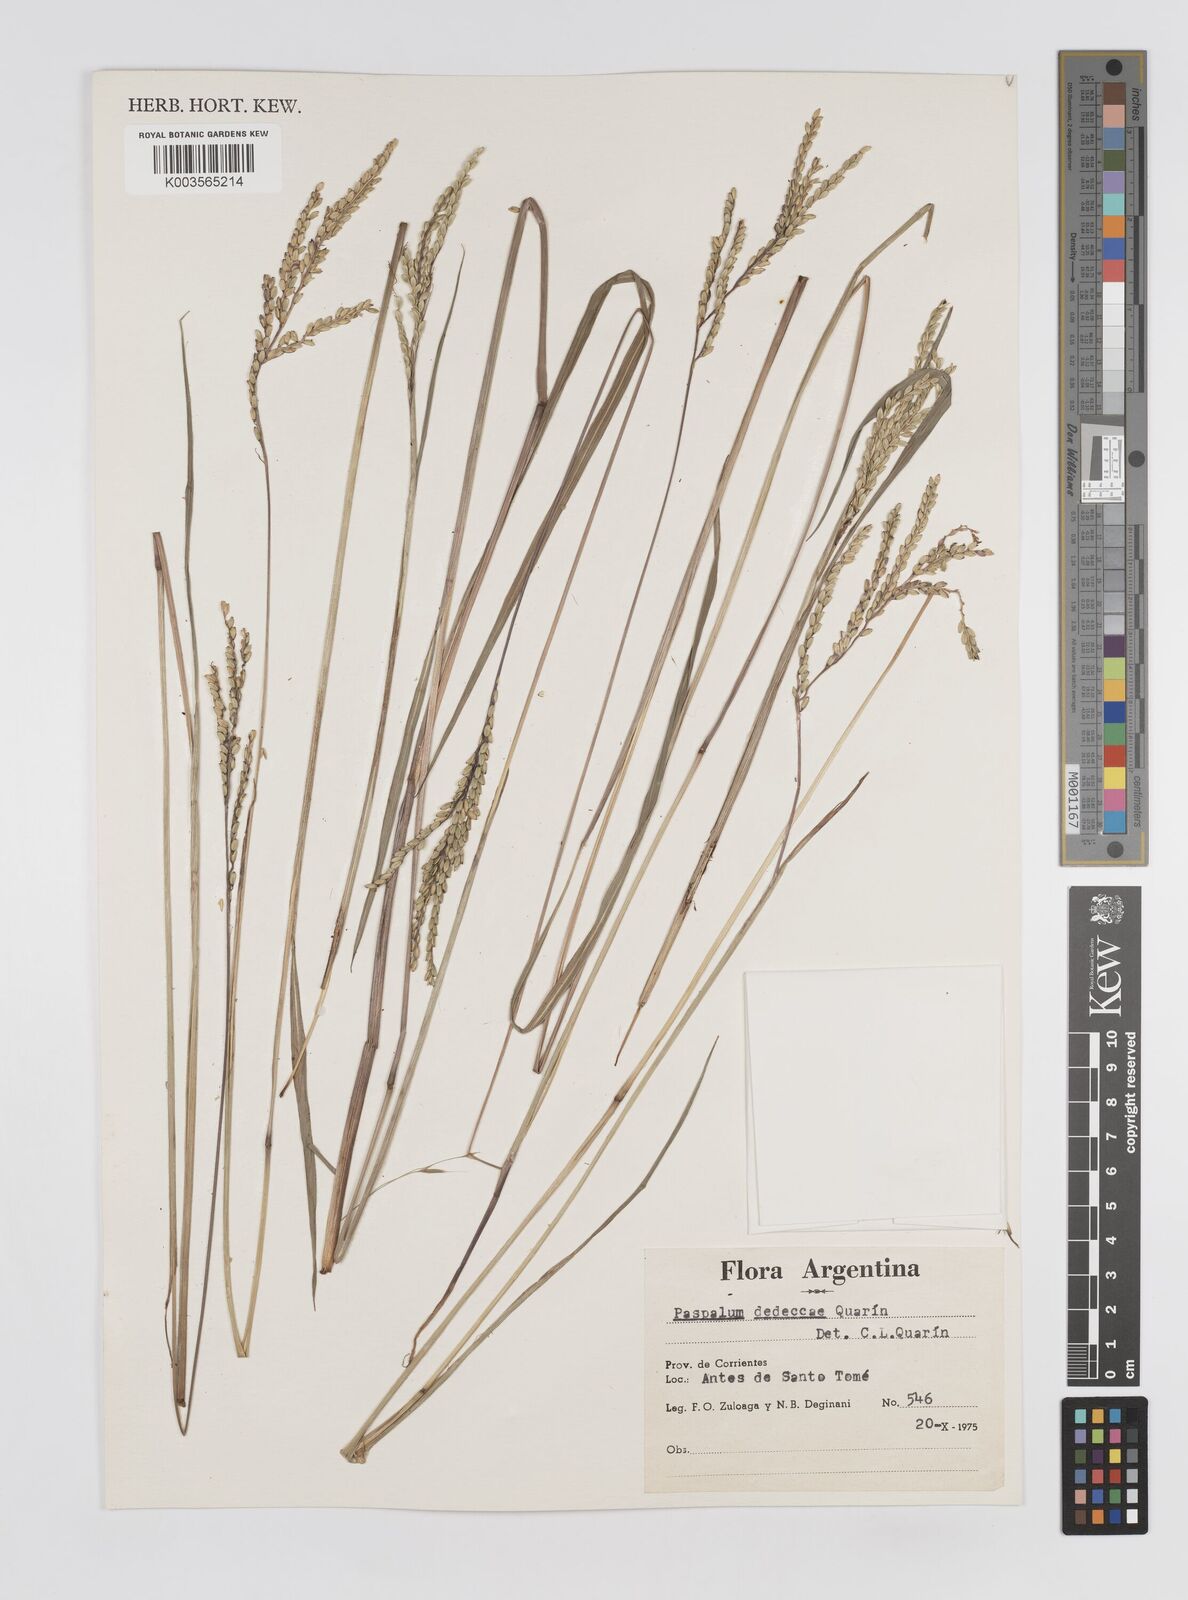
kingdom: Plantae
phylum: Tracheophyta
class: Liliopsida
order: Poales
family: Poaceae
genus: Paspalum
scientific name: Paspalum dedeccae
